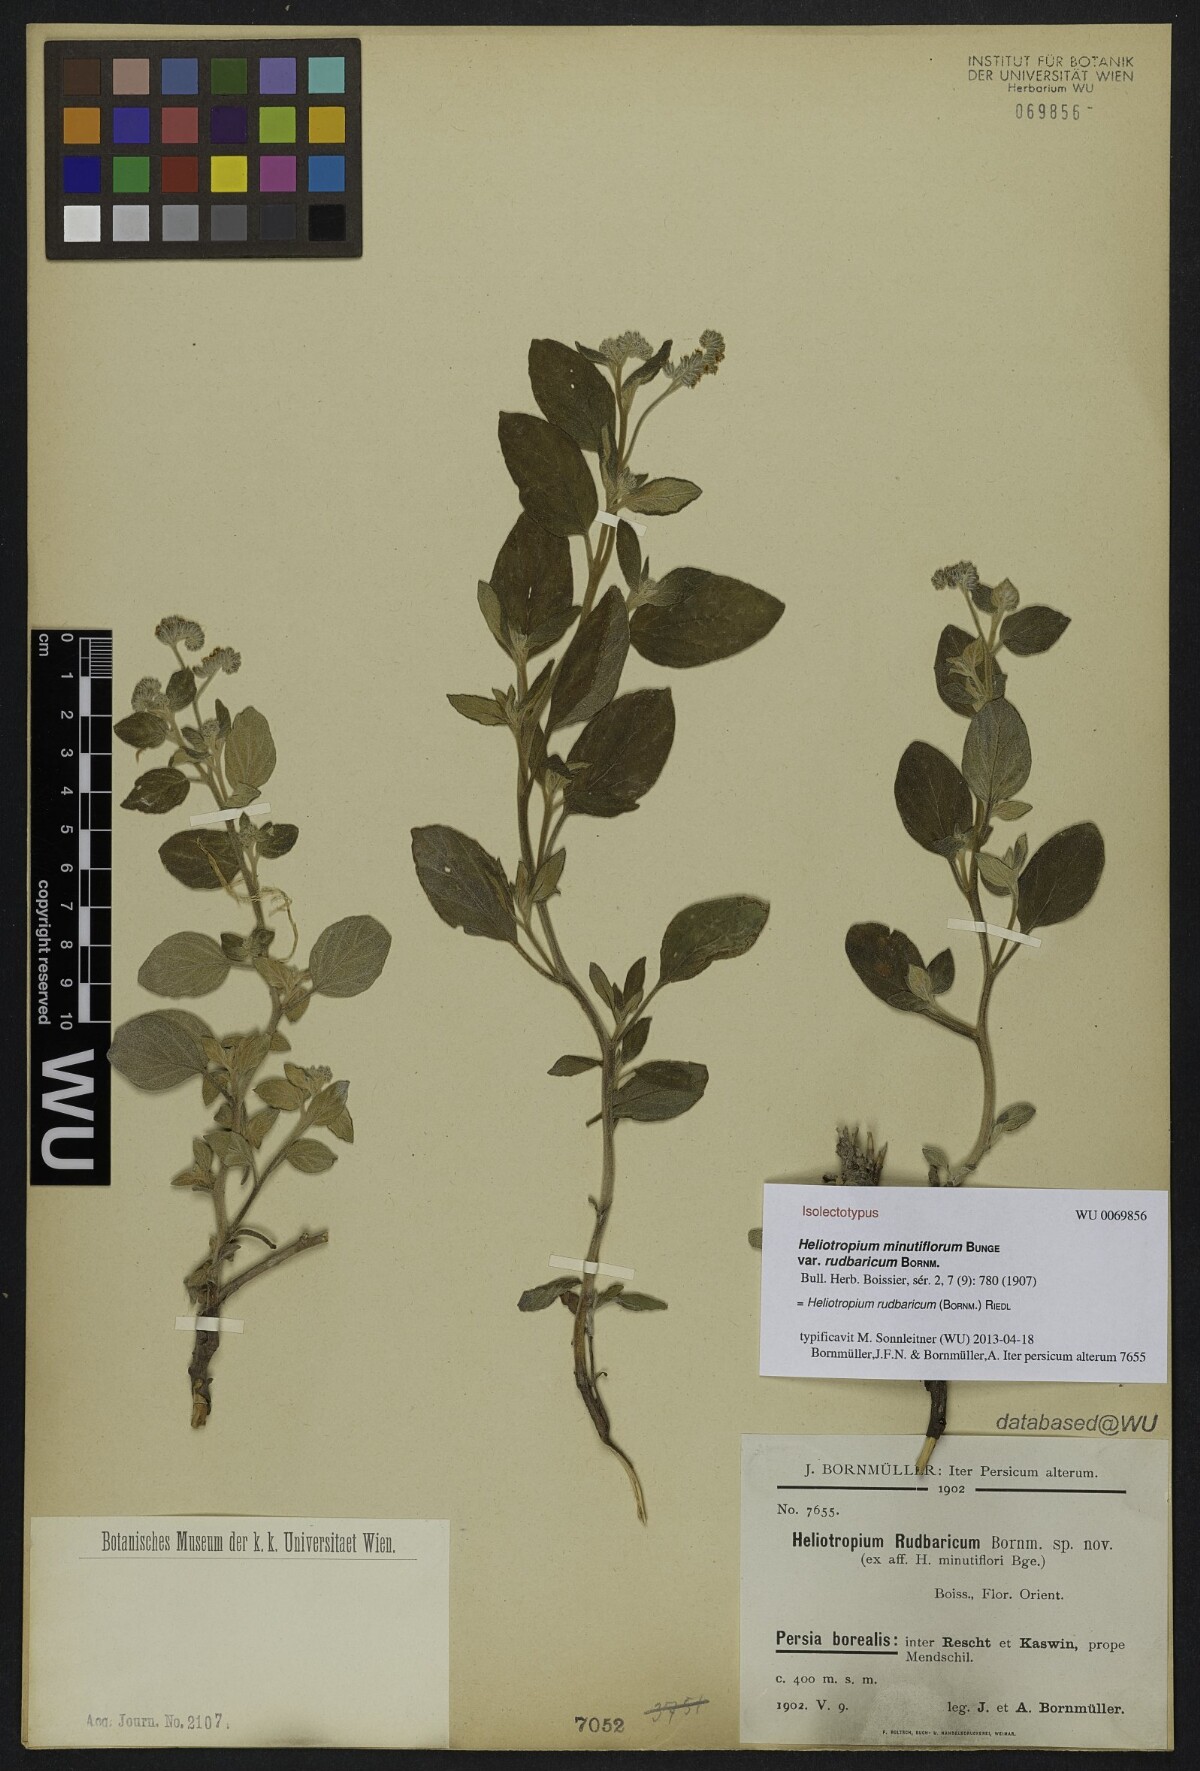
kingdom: Plantae
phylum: Tracheophyta
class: Magnoliopsida
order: Boraginales
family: Heliotropiaceae
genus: Heliotropium
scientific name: Heliotropium rudbaricum
